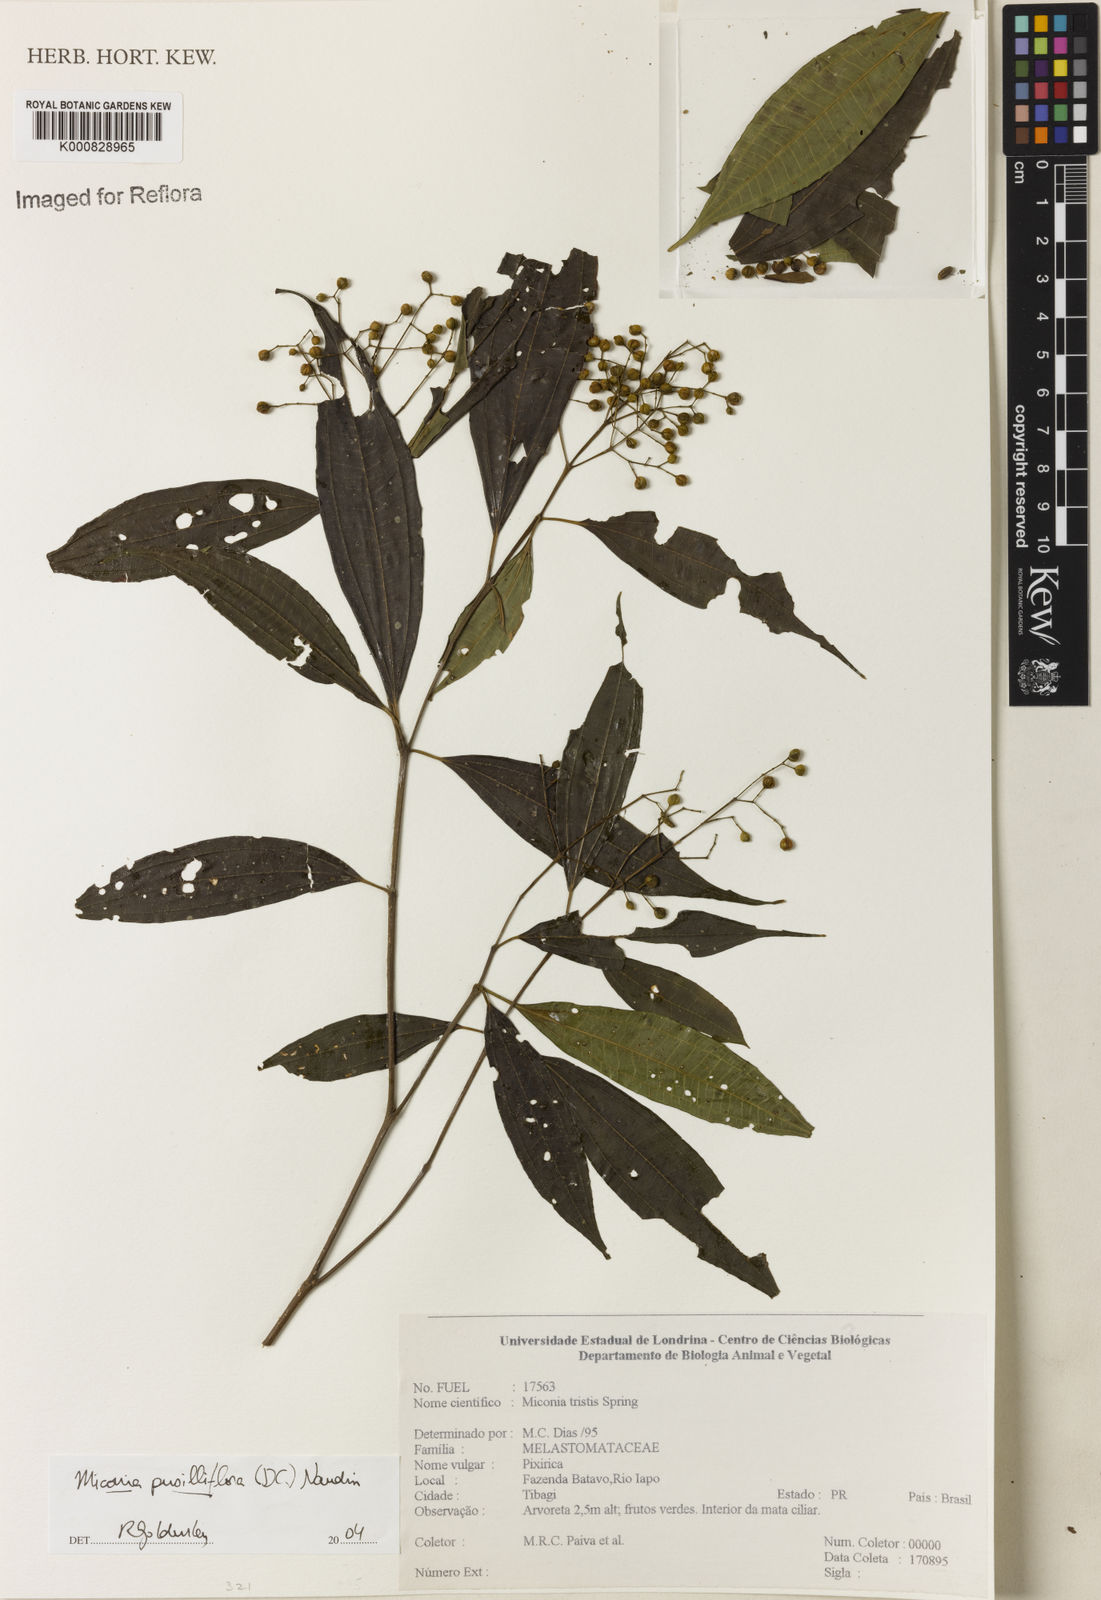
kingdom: Plantae
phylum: Tracheophyta
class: Magnoliopsida
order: Myrtales
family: Melastomataceae
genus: Miconia
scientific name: Miconia pusilliflora
